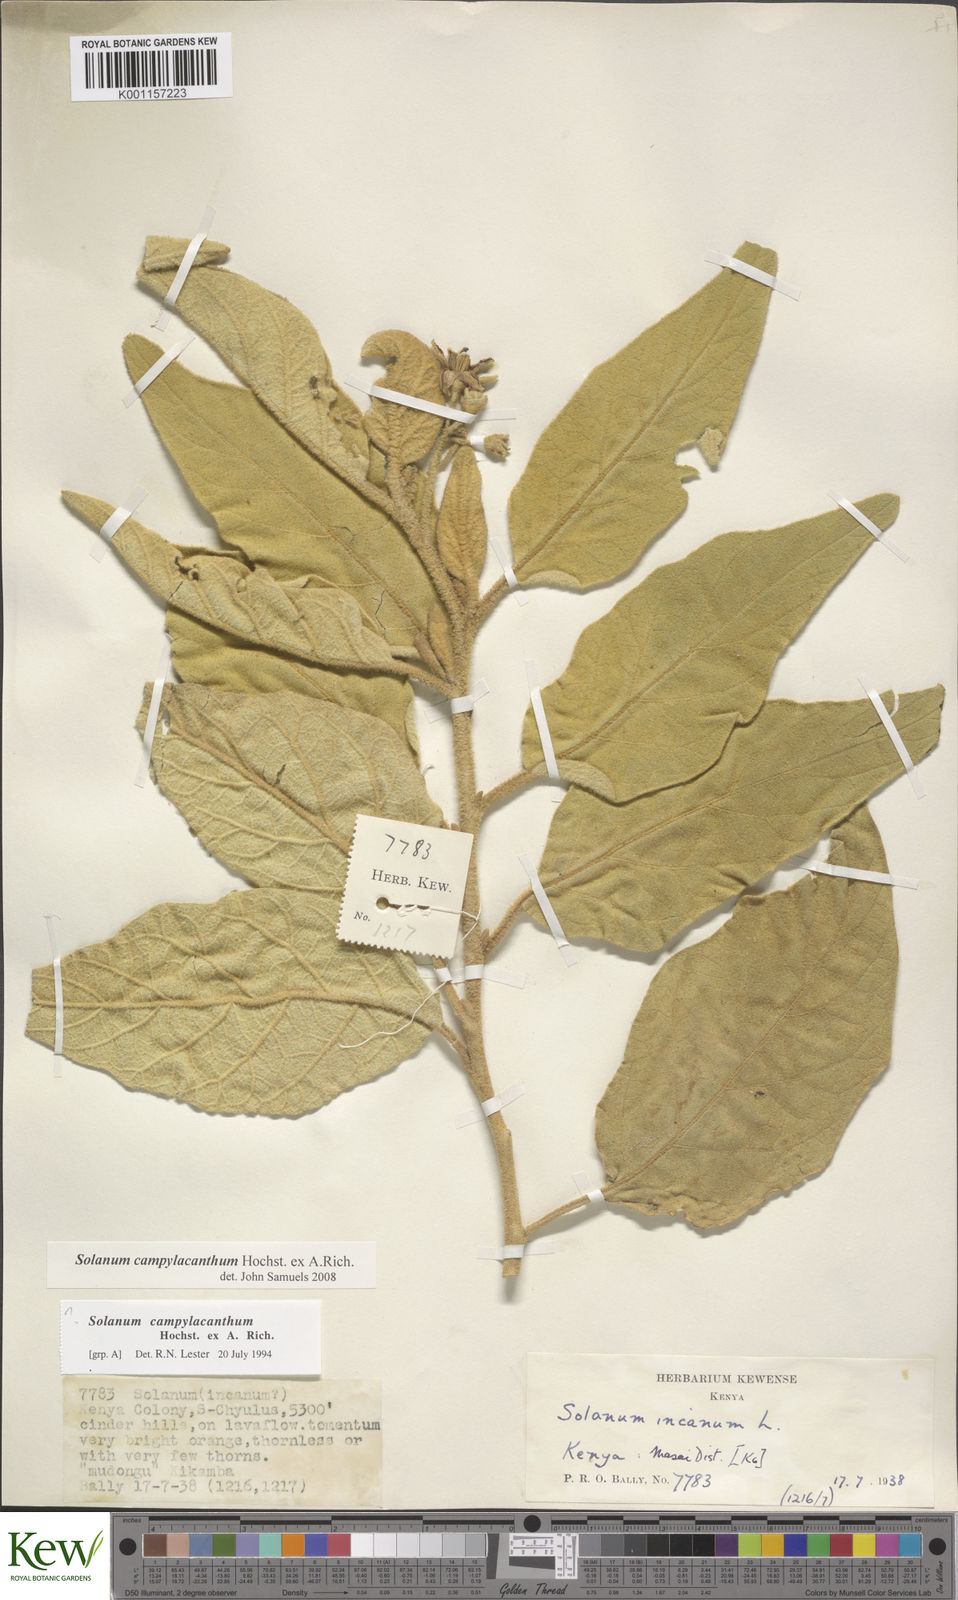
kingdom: Plantae
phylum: Tracheophyta
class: Magnoliopsida
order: Solanales
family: Solanaceae
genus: Solanum
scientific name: Solanum campylacanthum
